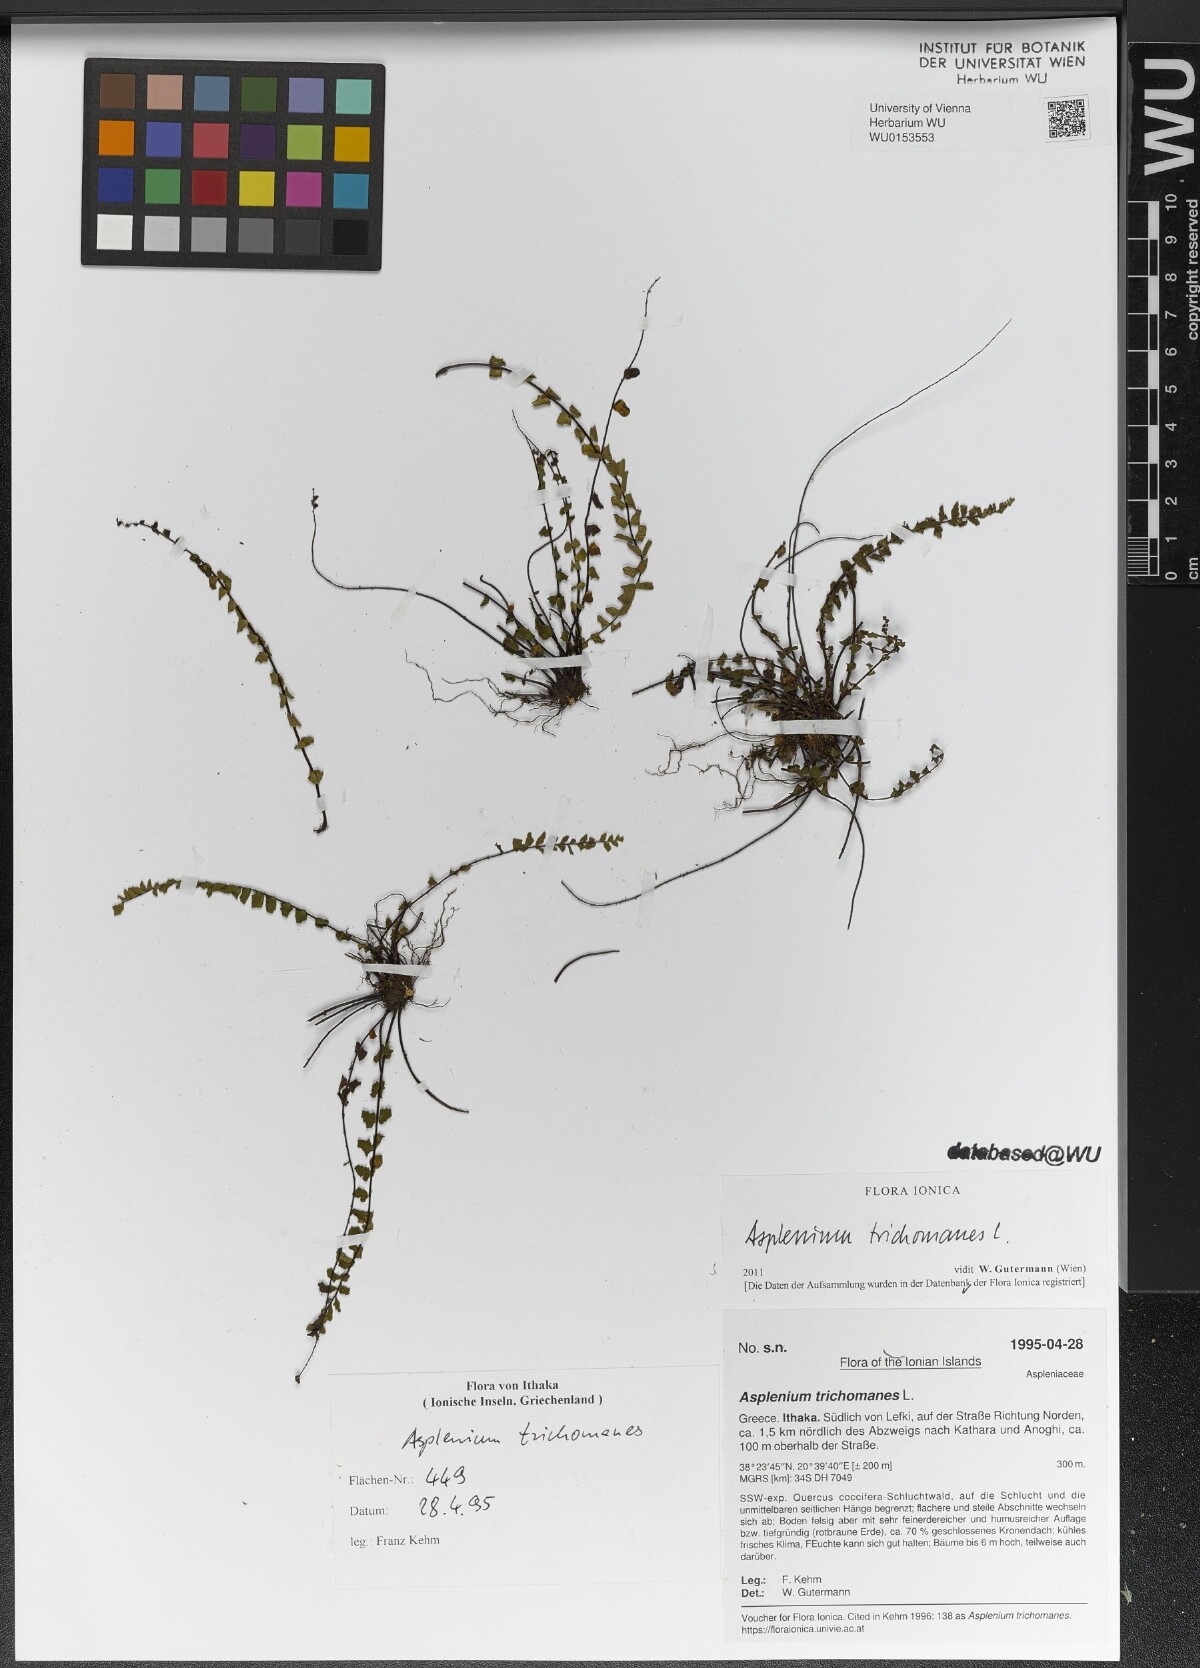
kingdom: Plantae
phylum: Tracheophyta
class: Polypodiopsida
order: Polypodiales
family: Aspleniaceae
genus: Asplenium
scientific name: Asplenium trichomanes
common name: Maidenhair spleenwort
